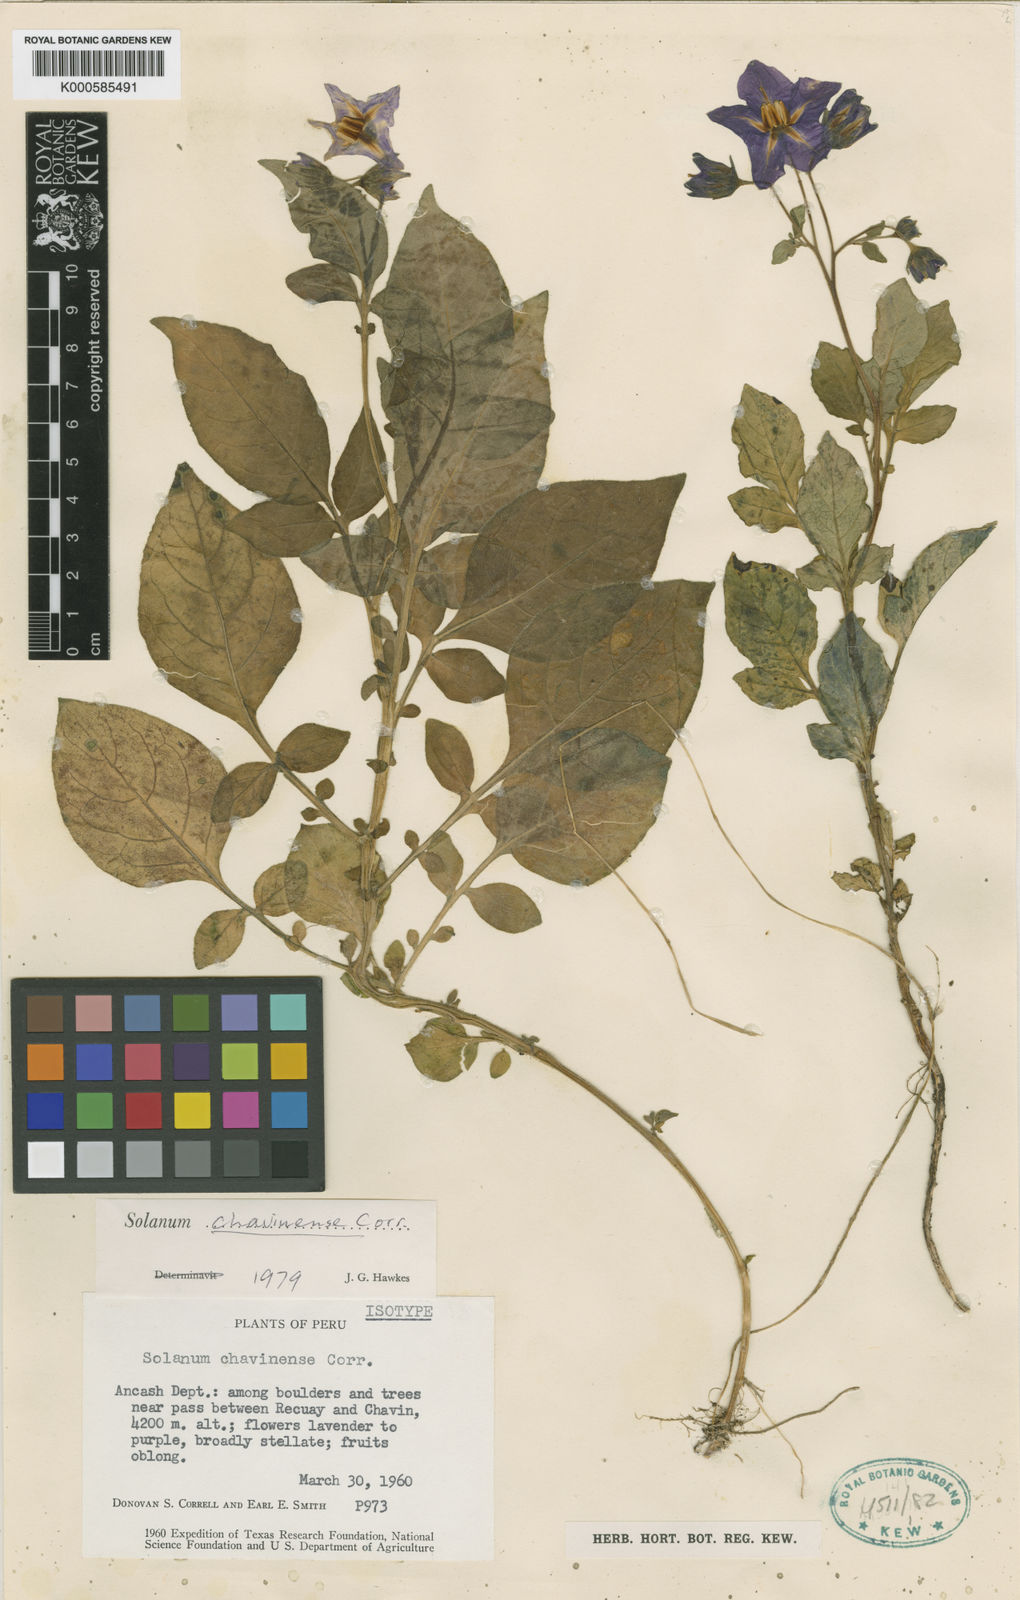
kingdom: Plantae
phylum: Tracheophyta
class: Magnoliopsida
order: Solanales
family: Solanaceae
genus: Solanum
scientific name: Solanum dolichocremastrum
